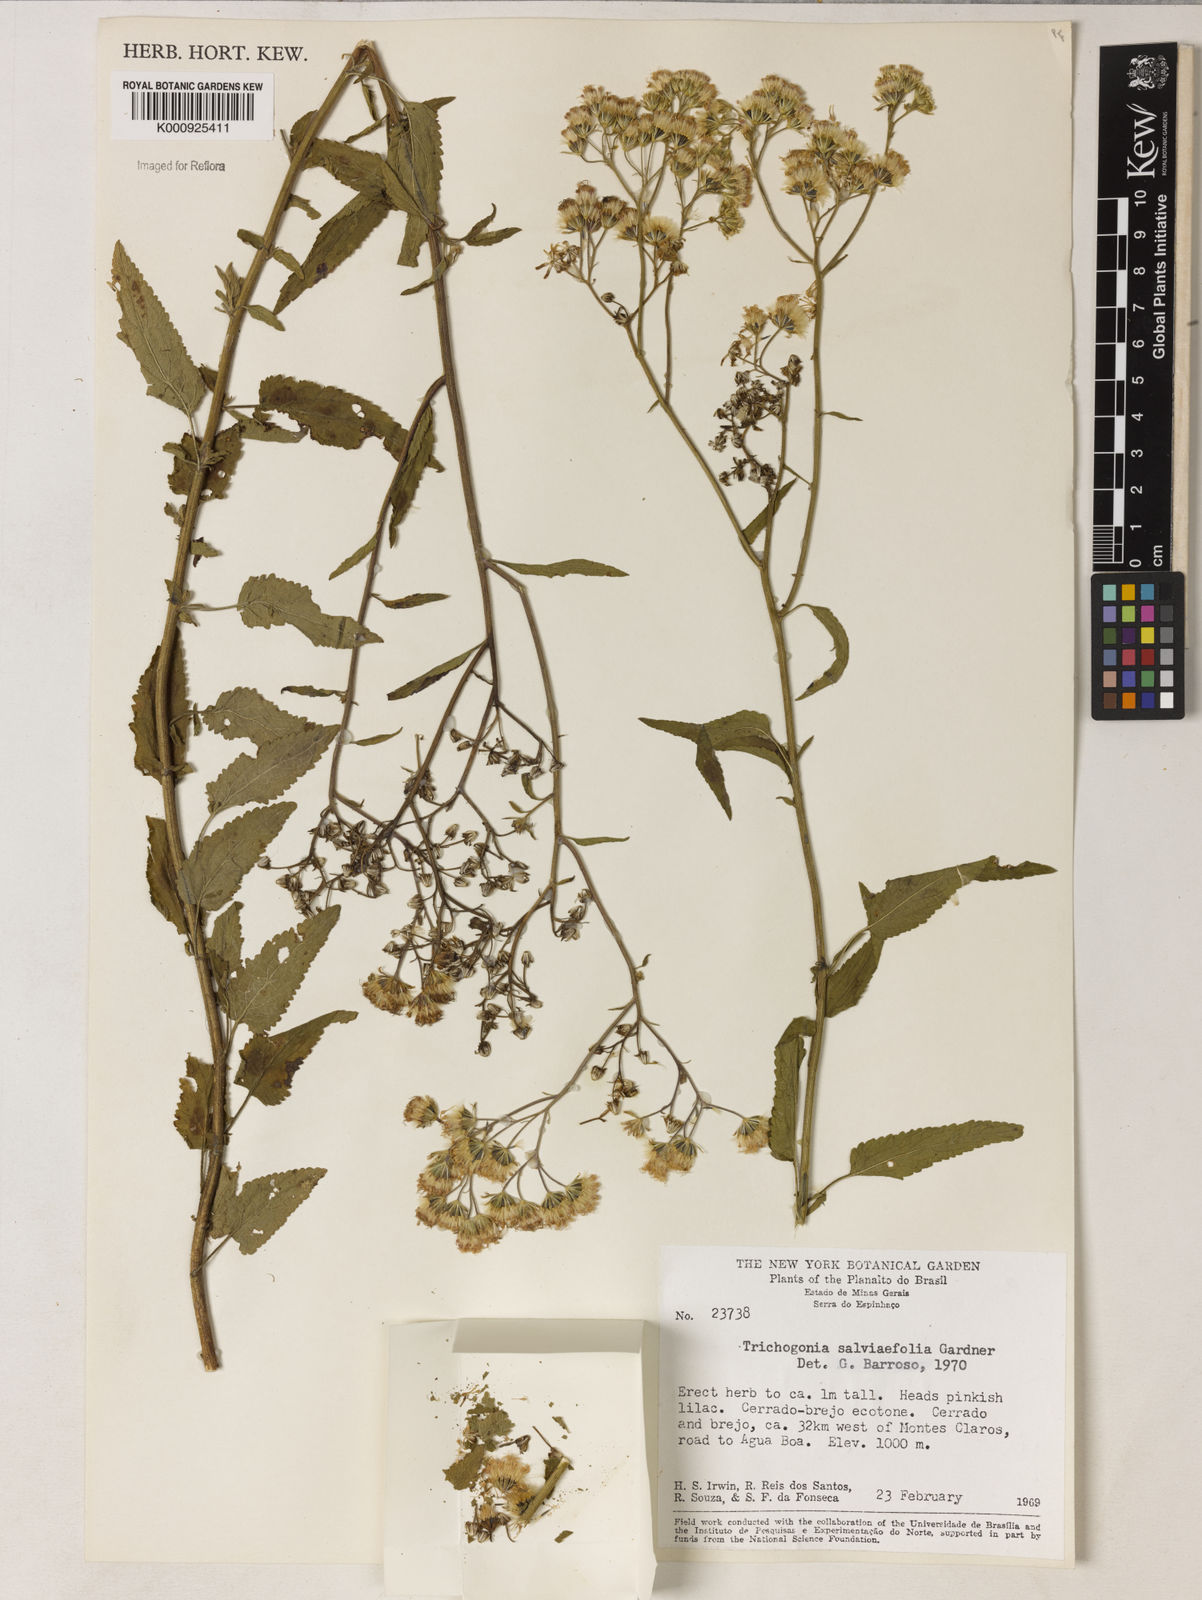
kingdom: Plantae
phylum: Tracheophyta
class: Magnoliopsida
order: Asterales
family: Asteraceae
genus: Trichogonia
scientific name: Trichogonia
